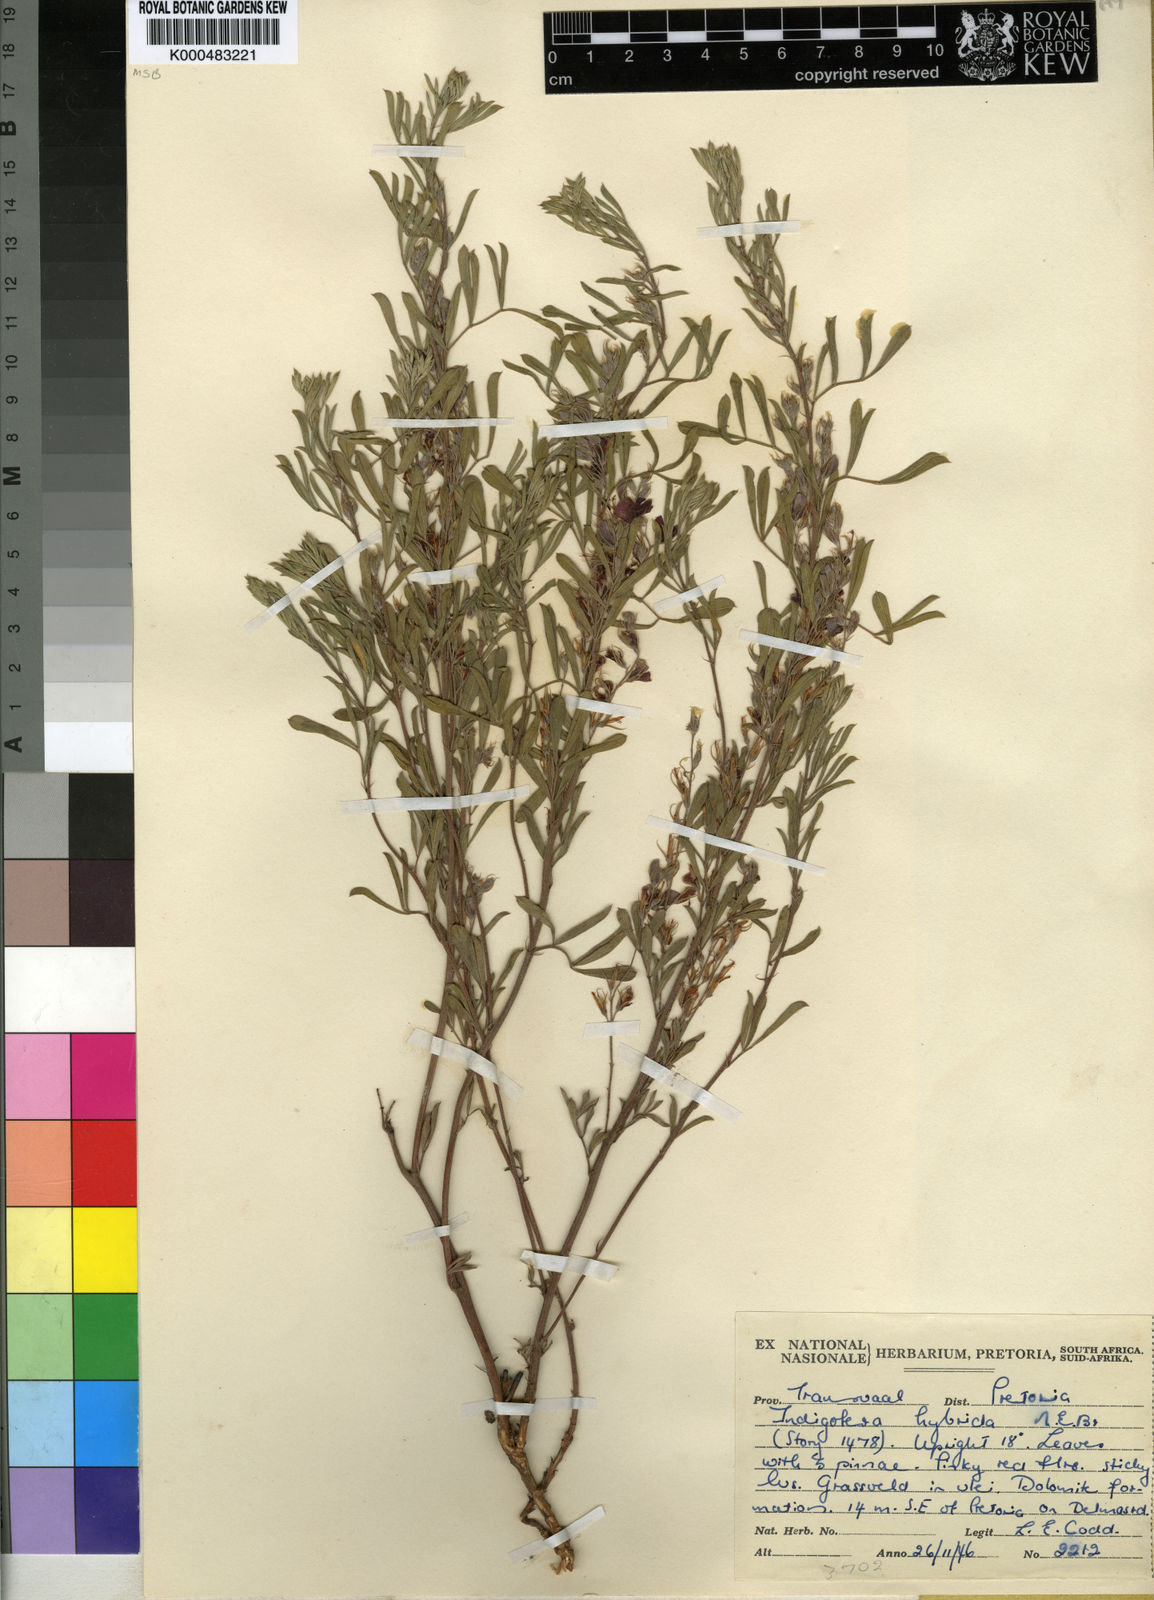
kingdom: Plantae
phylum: Tracheophyta
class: Magnoliopsida
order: Fabales
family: Fabaceae
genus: Indigofera
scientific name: Indigofera hybrida
